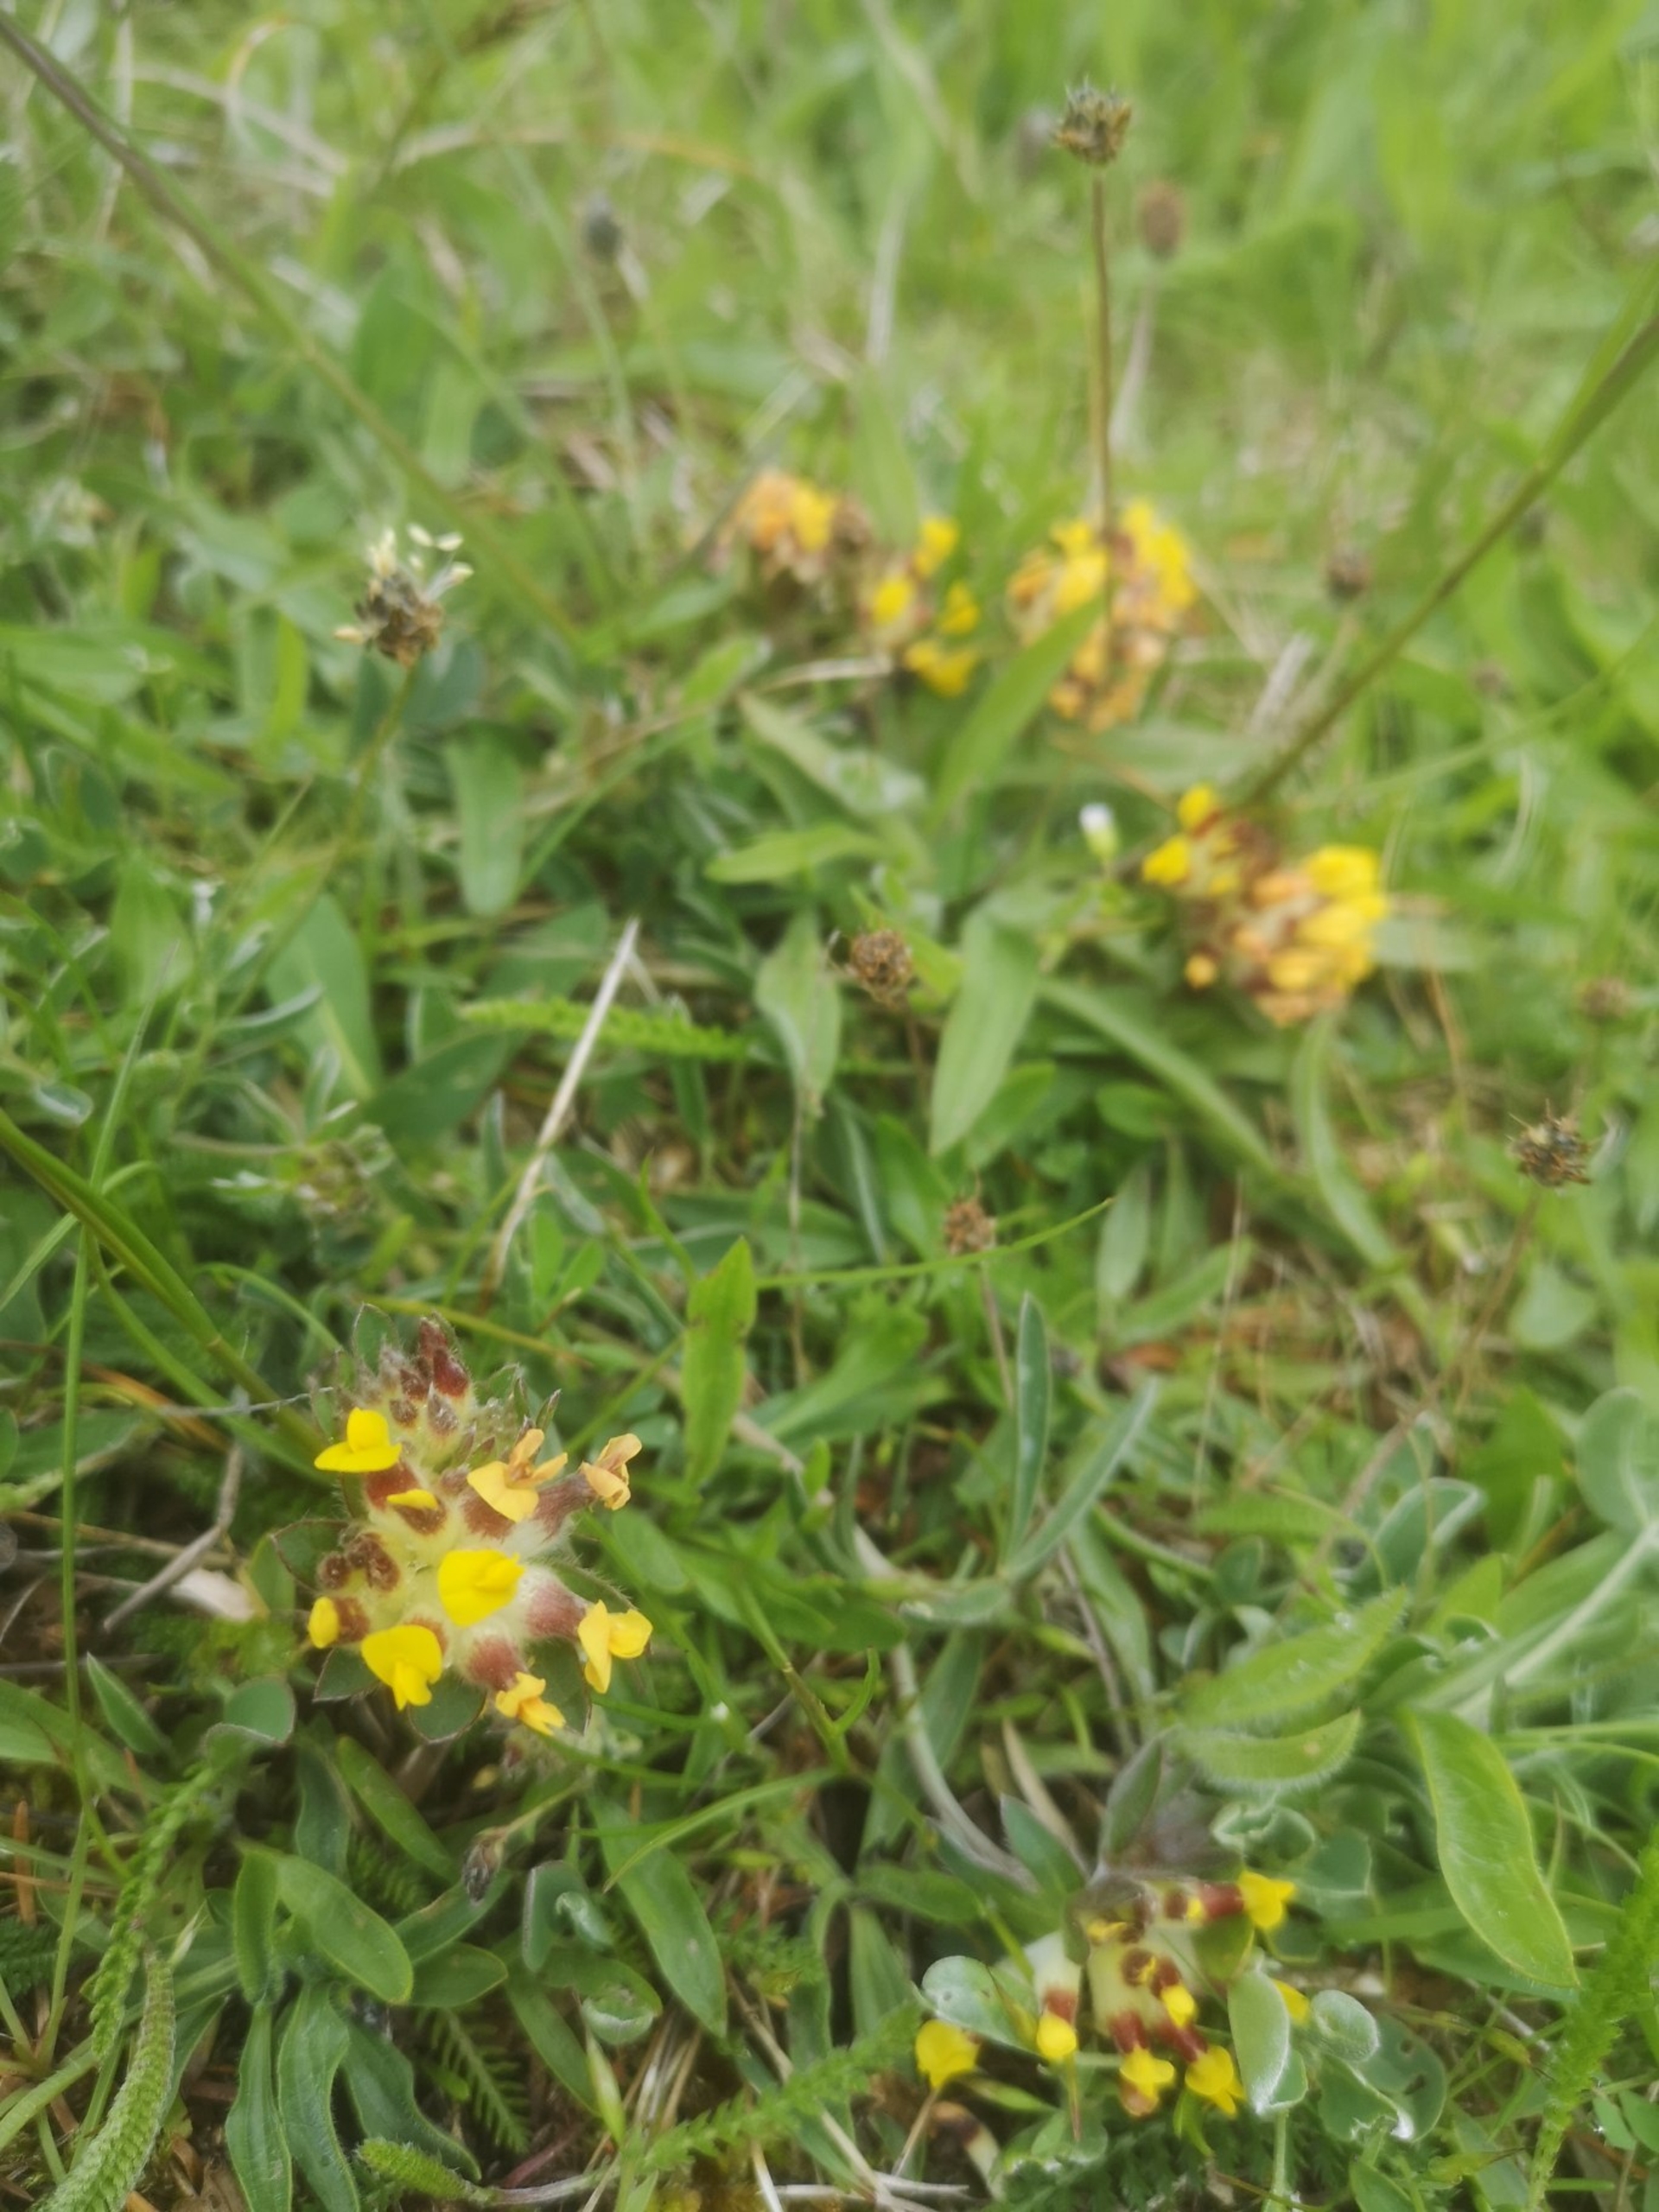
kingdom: Plantae
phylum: Tracheophyta
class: Magnoliopsida
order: Fabales
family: Fabaceae
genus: Anthyllis
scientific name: Anthyllis vulneraria
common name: Rundbælg
